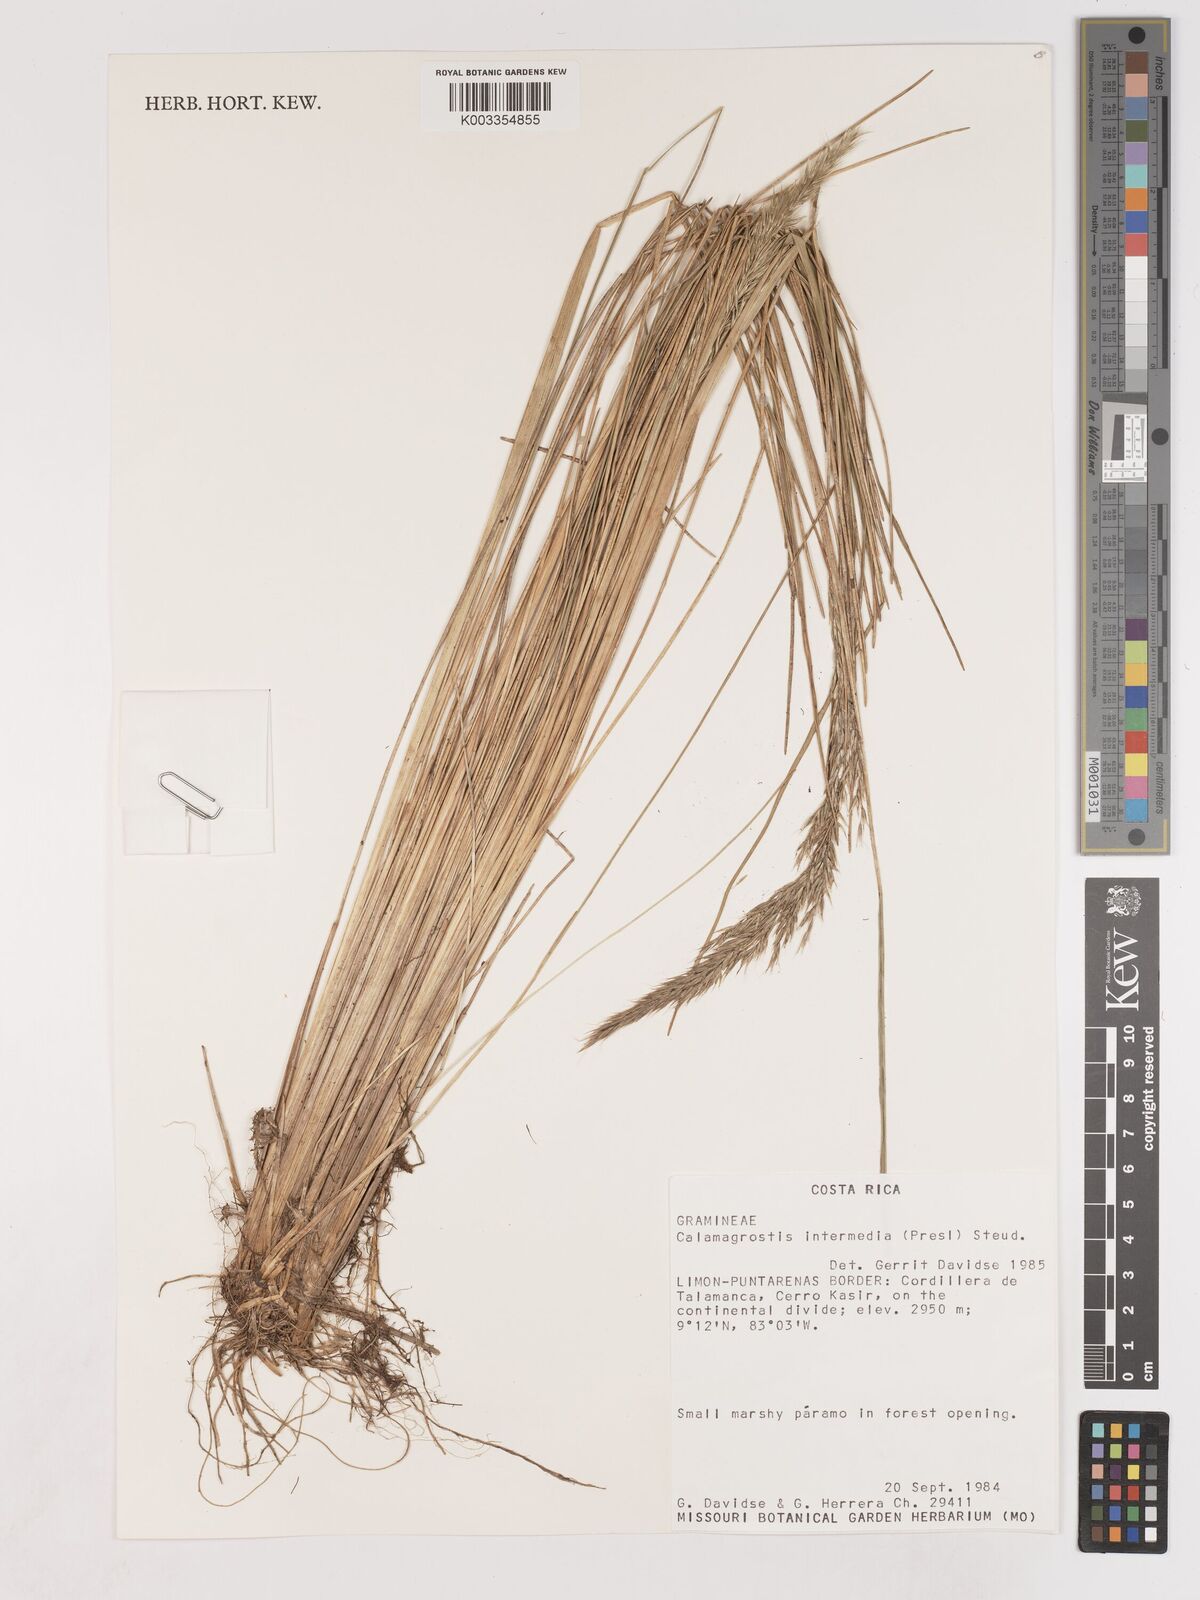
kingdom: Plantae
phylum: Tracheophyta
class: Liliopsida
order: Poales
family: Poaceae
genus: Cinnagrostis
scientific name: Cinnagrostis intermedia
